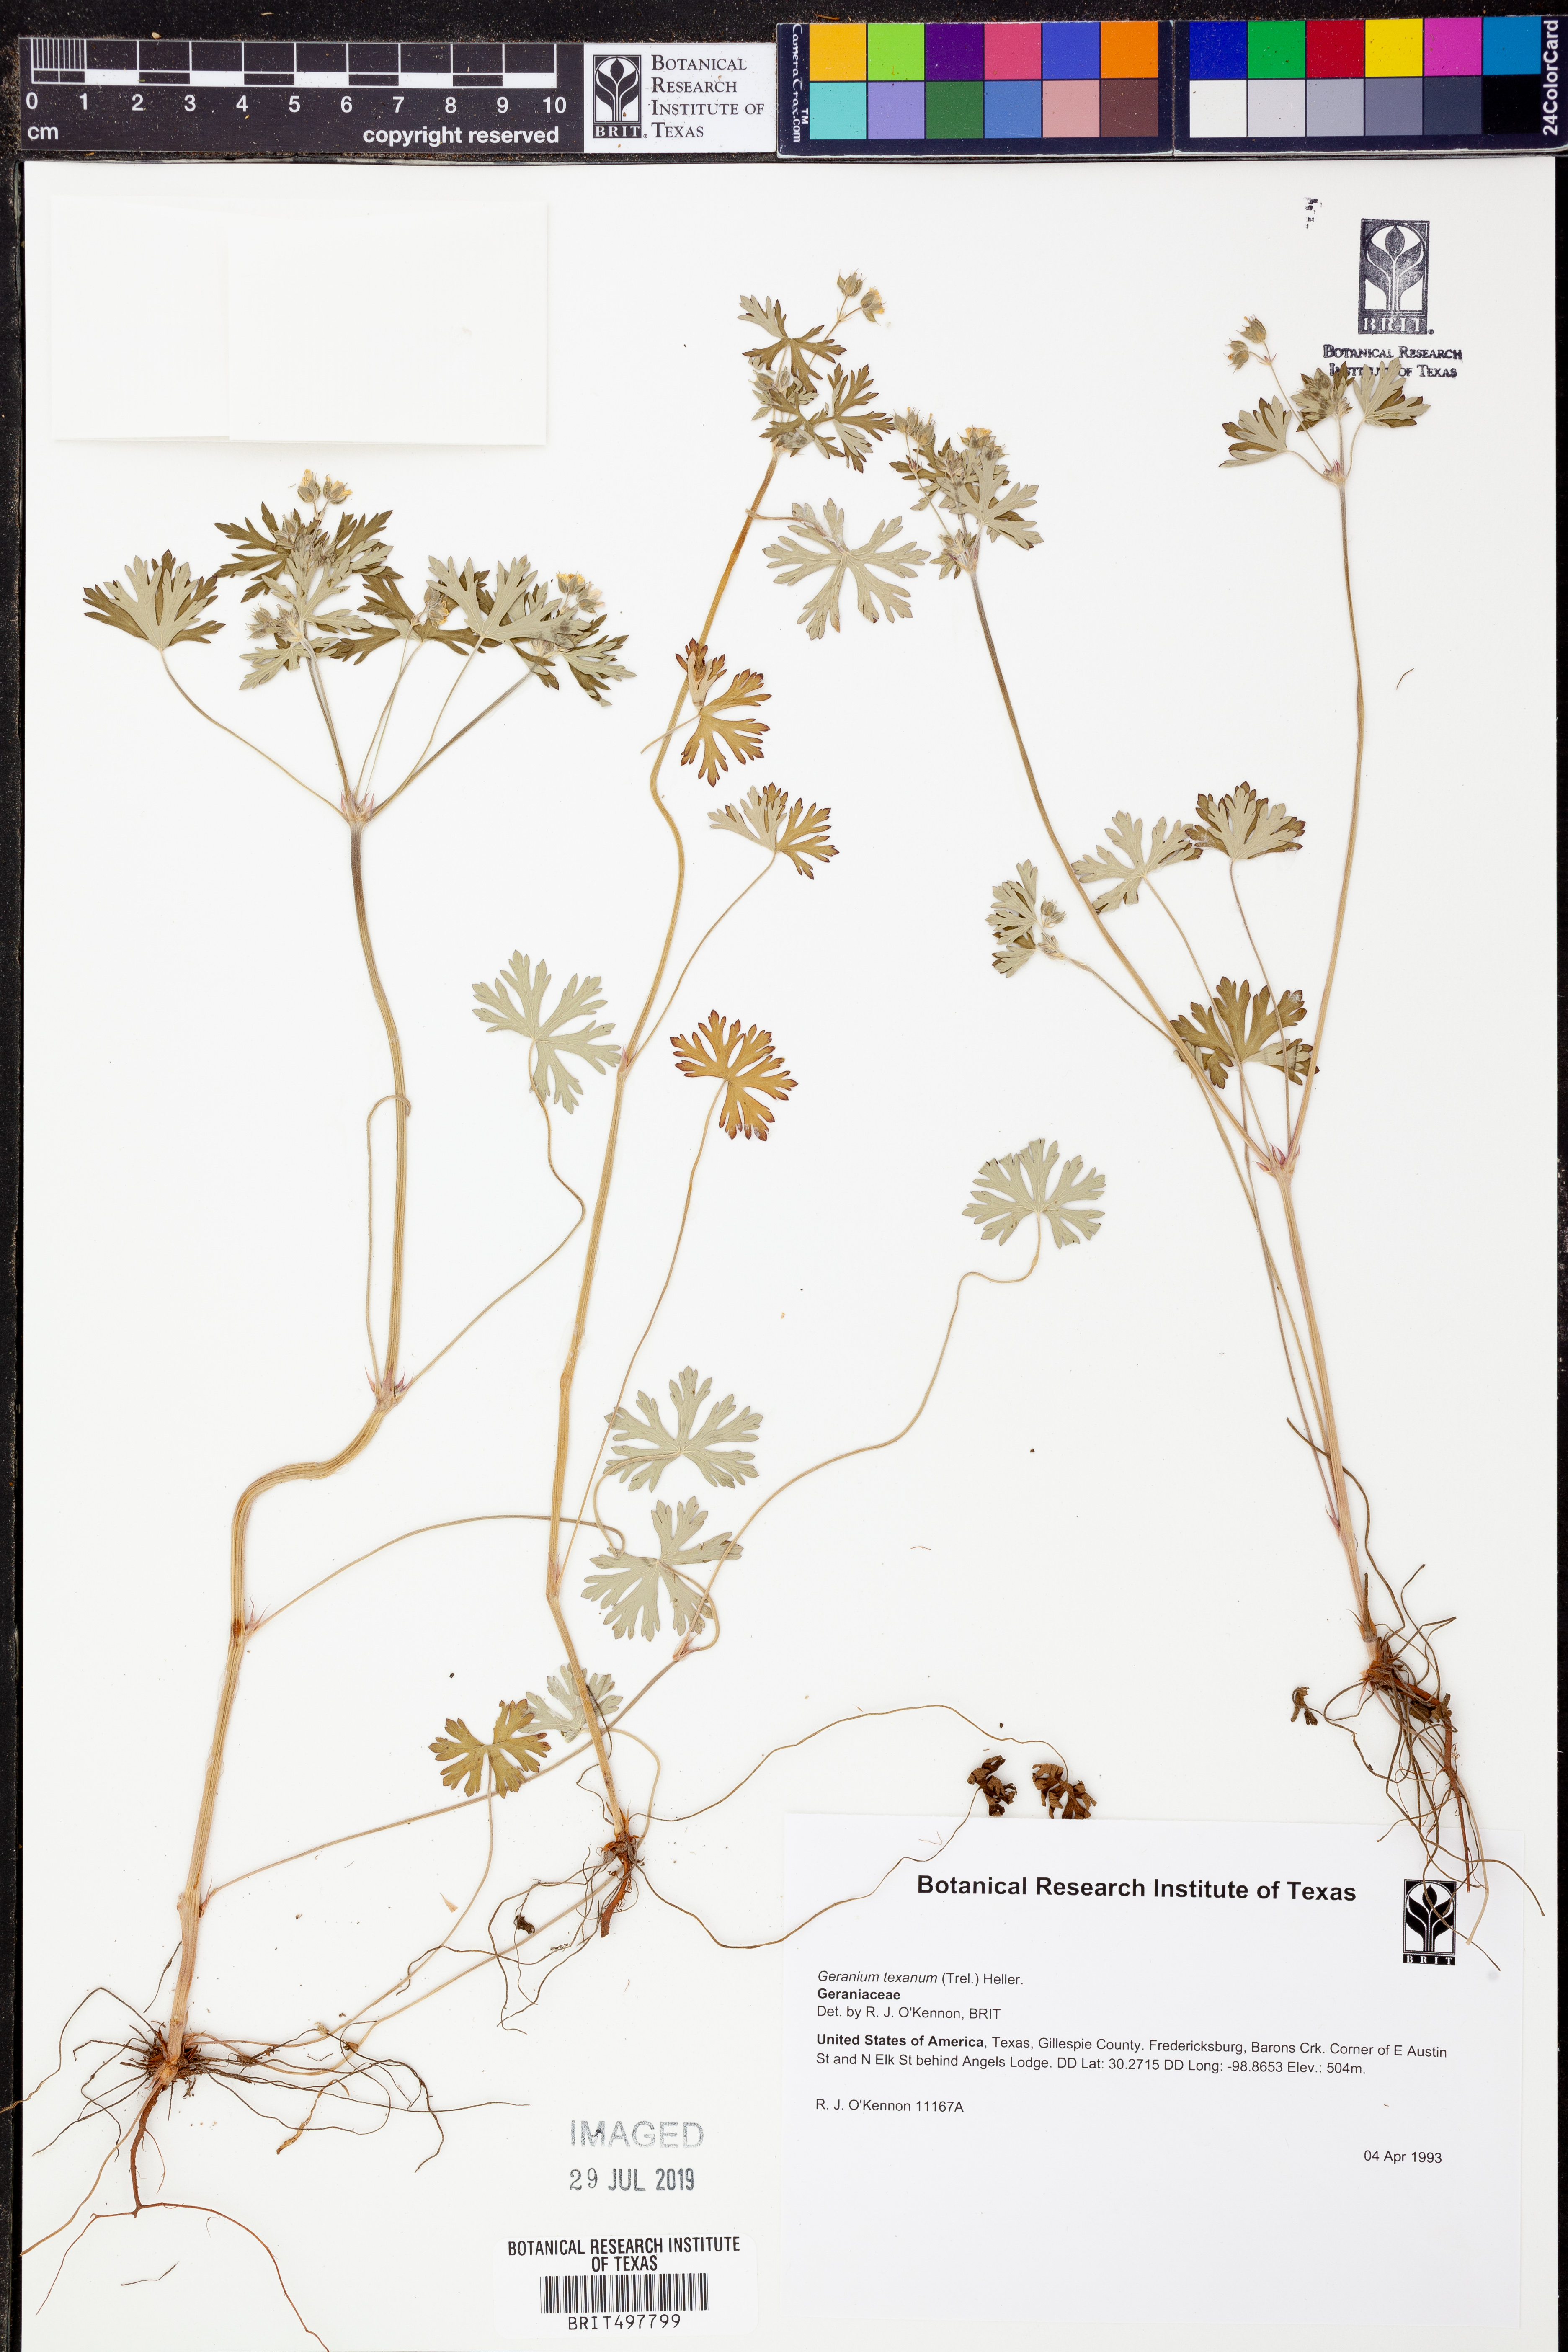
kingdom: Plantae
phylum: Tracheophyta
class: Magnoliopsida
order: Geraniales
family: Geraniaceae
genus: Geranium
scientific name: Geranium texanum
